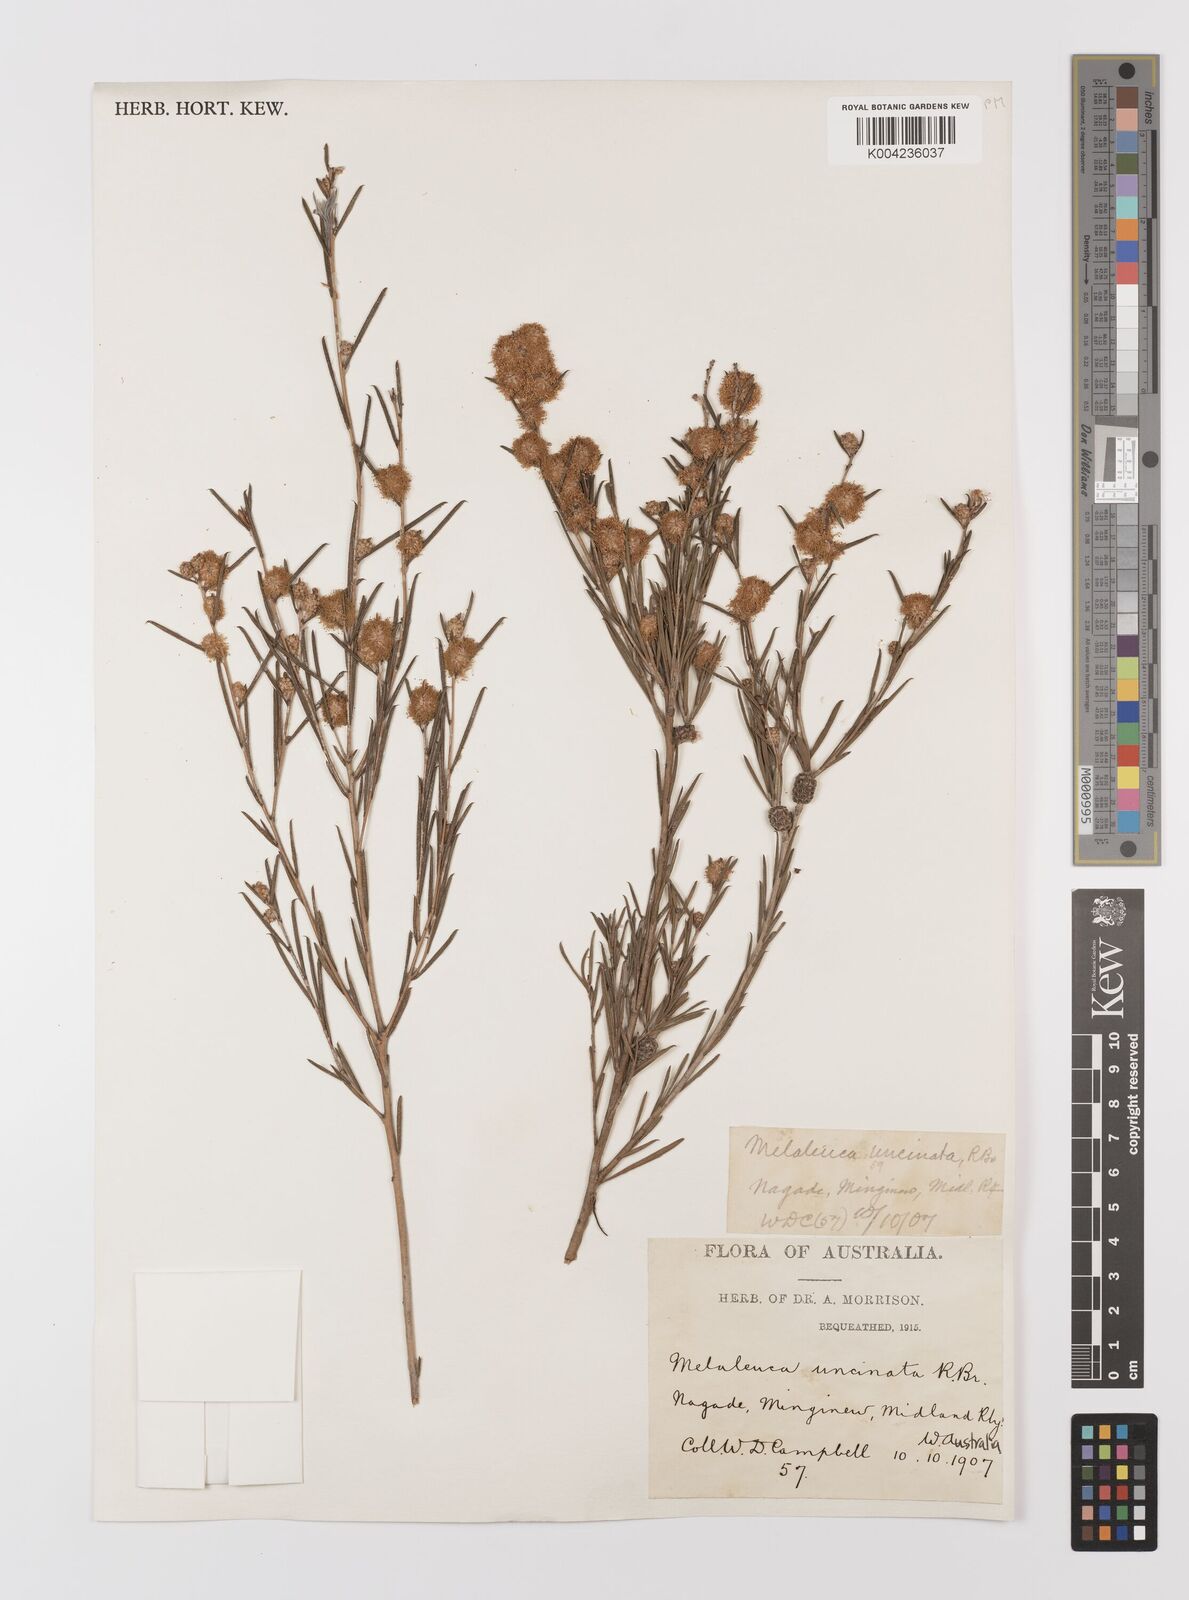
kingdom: Plantae
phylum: Tracheophyta
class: Magnoliopsida
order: Myrtales
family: Myrtaceae
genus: Melaleuca
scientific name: Melaleuca uncinata
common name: Broom honey myrtle
